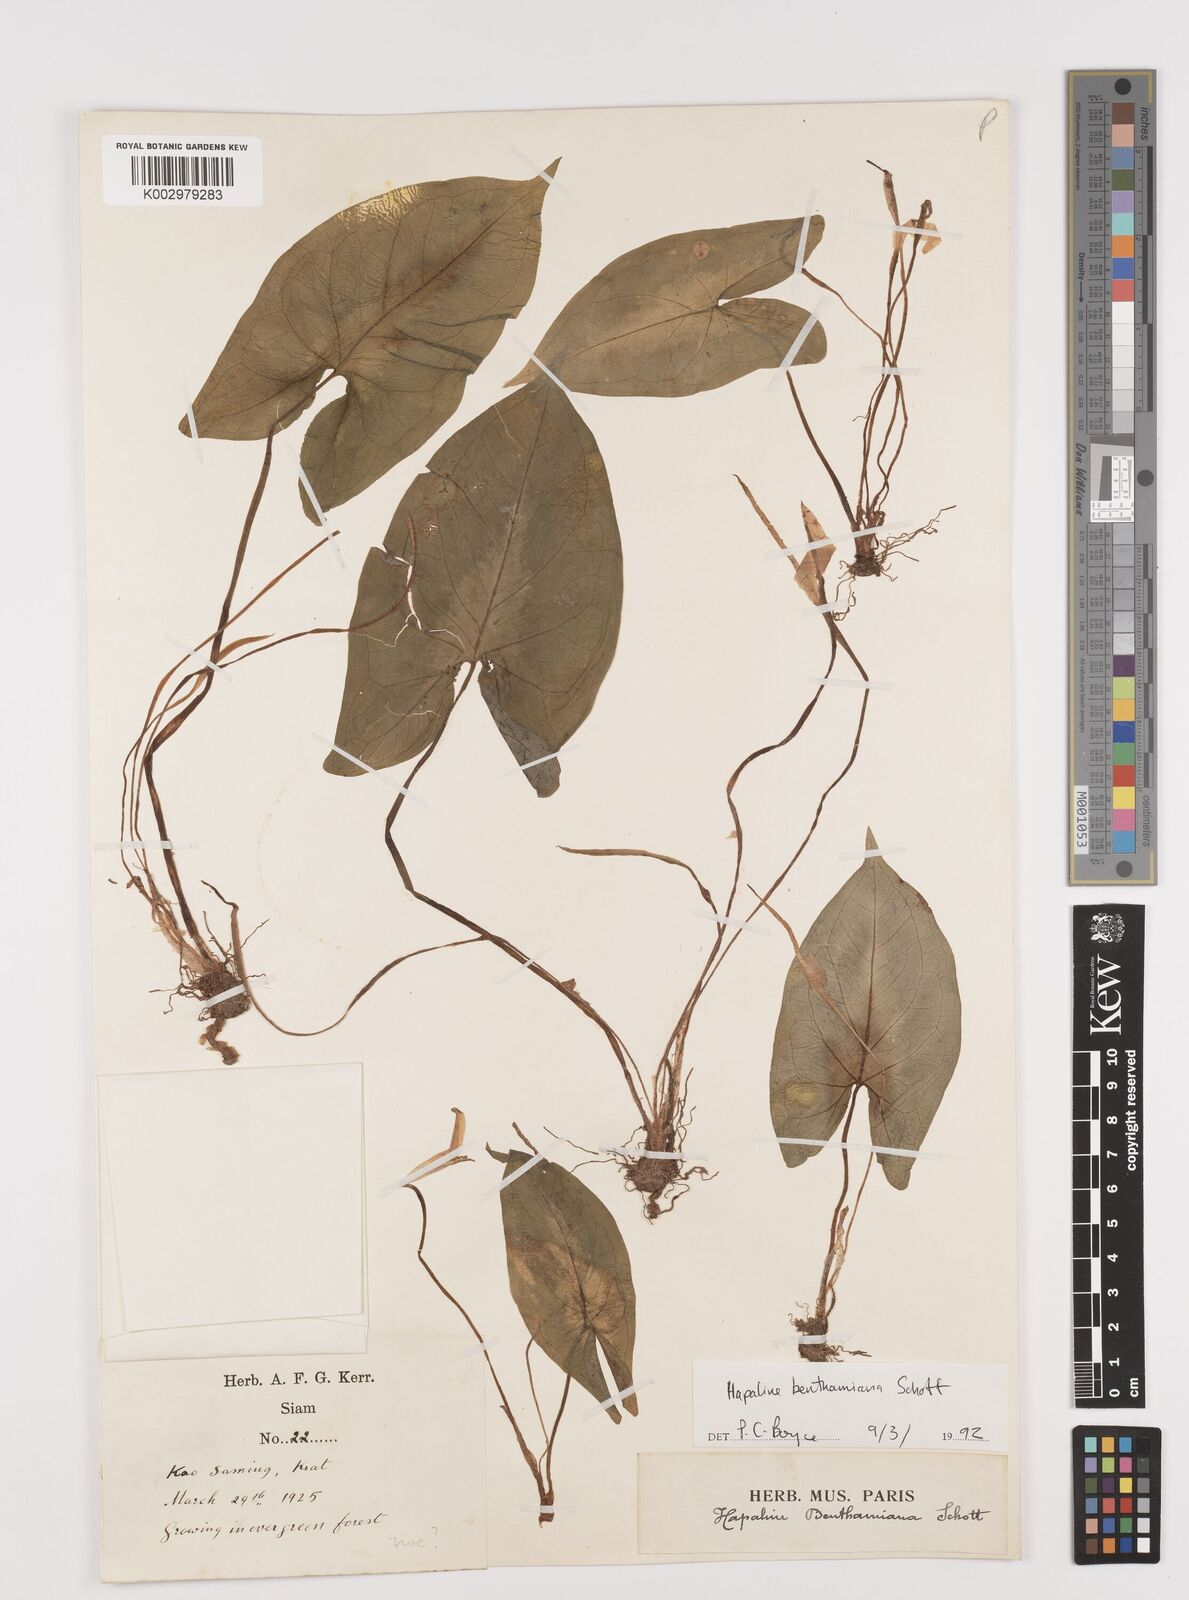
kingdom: Plantae
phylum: Tracheophyta
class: Liliopsida
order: Alismatales
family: Araceae
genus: Hapaline
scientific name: Hapaline benthamiana
